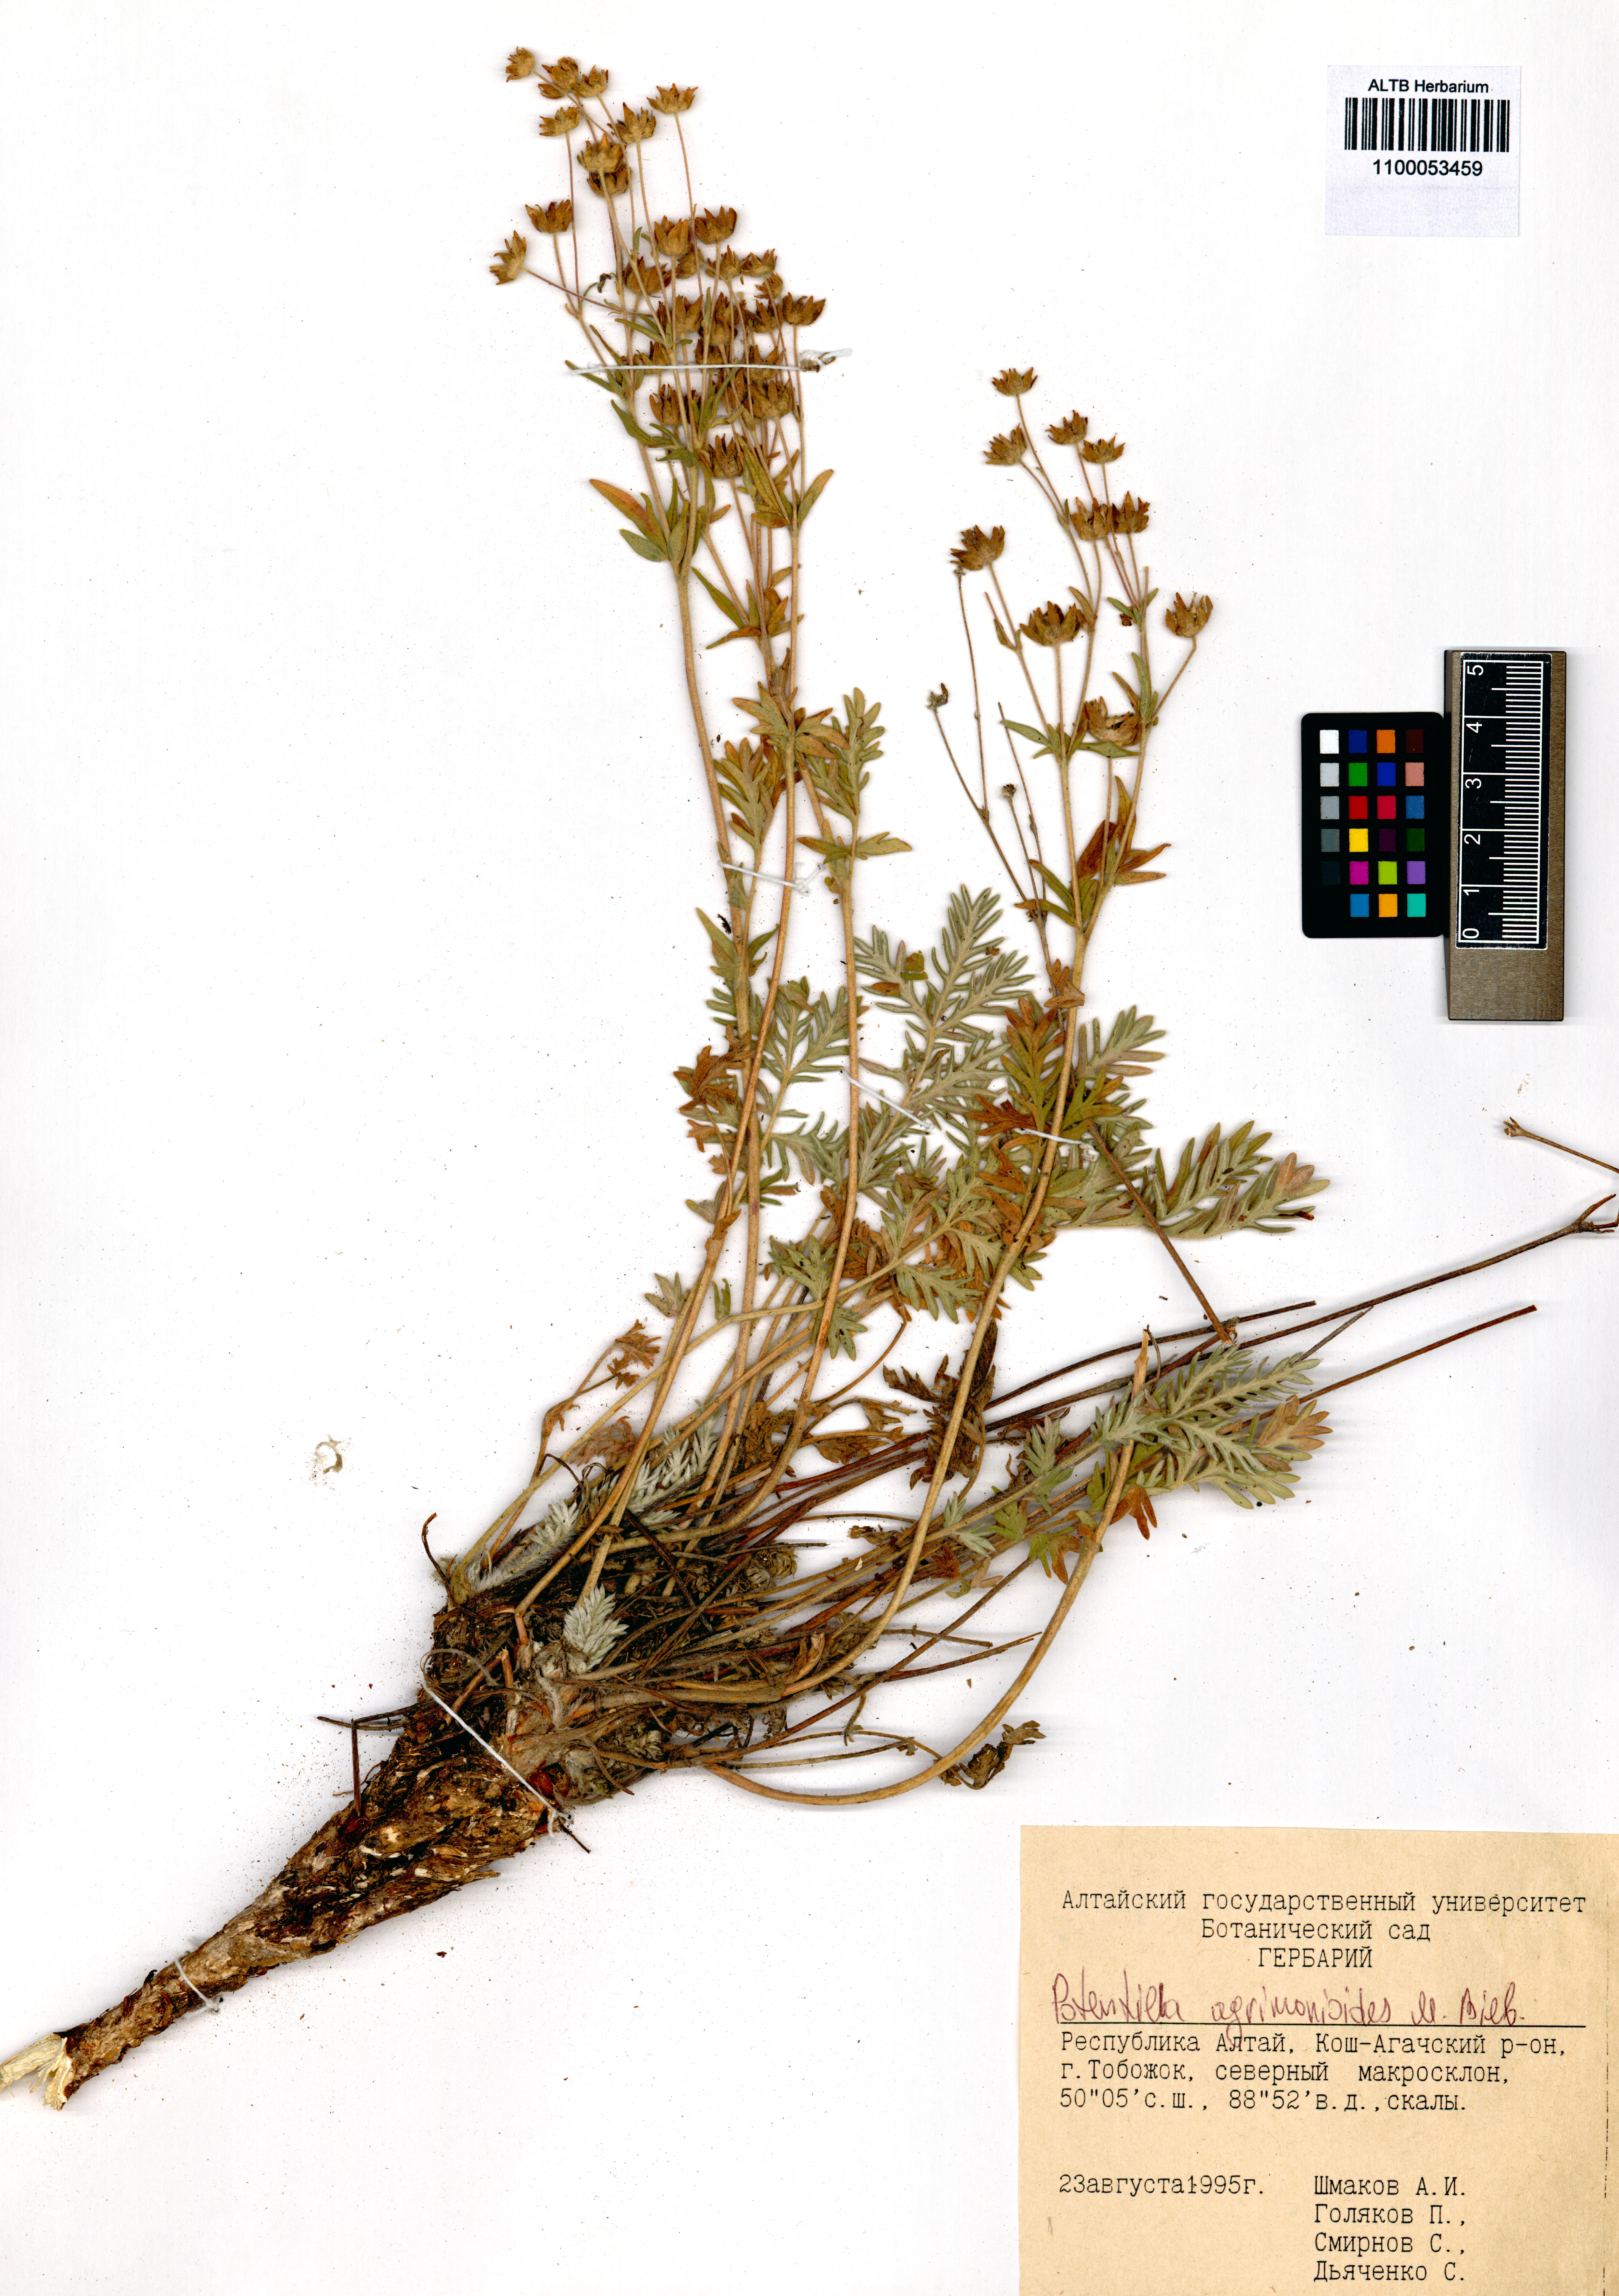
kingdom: Plantae
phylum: Tracheophyta
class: Magnoliopsida
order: Rosales
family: Rosaceae
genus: Potentilla
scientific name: Potentilla agrimonioides
